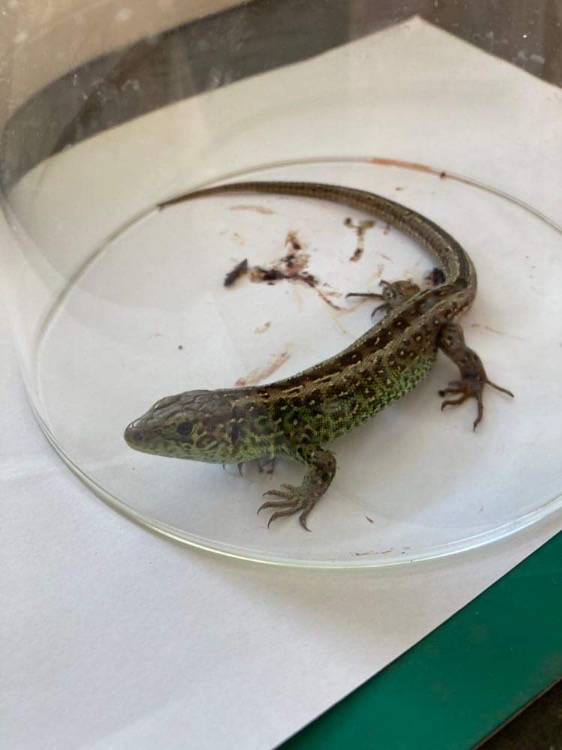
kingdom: Animalia
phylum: Chordata
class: Squamata
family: Lacertidae
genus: Lacerta
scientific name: Lacerta agilis
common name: Markfirben
